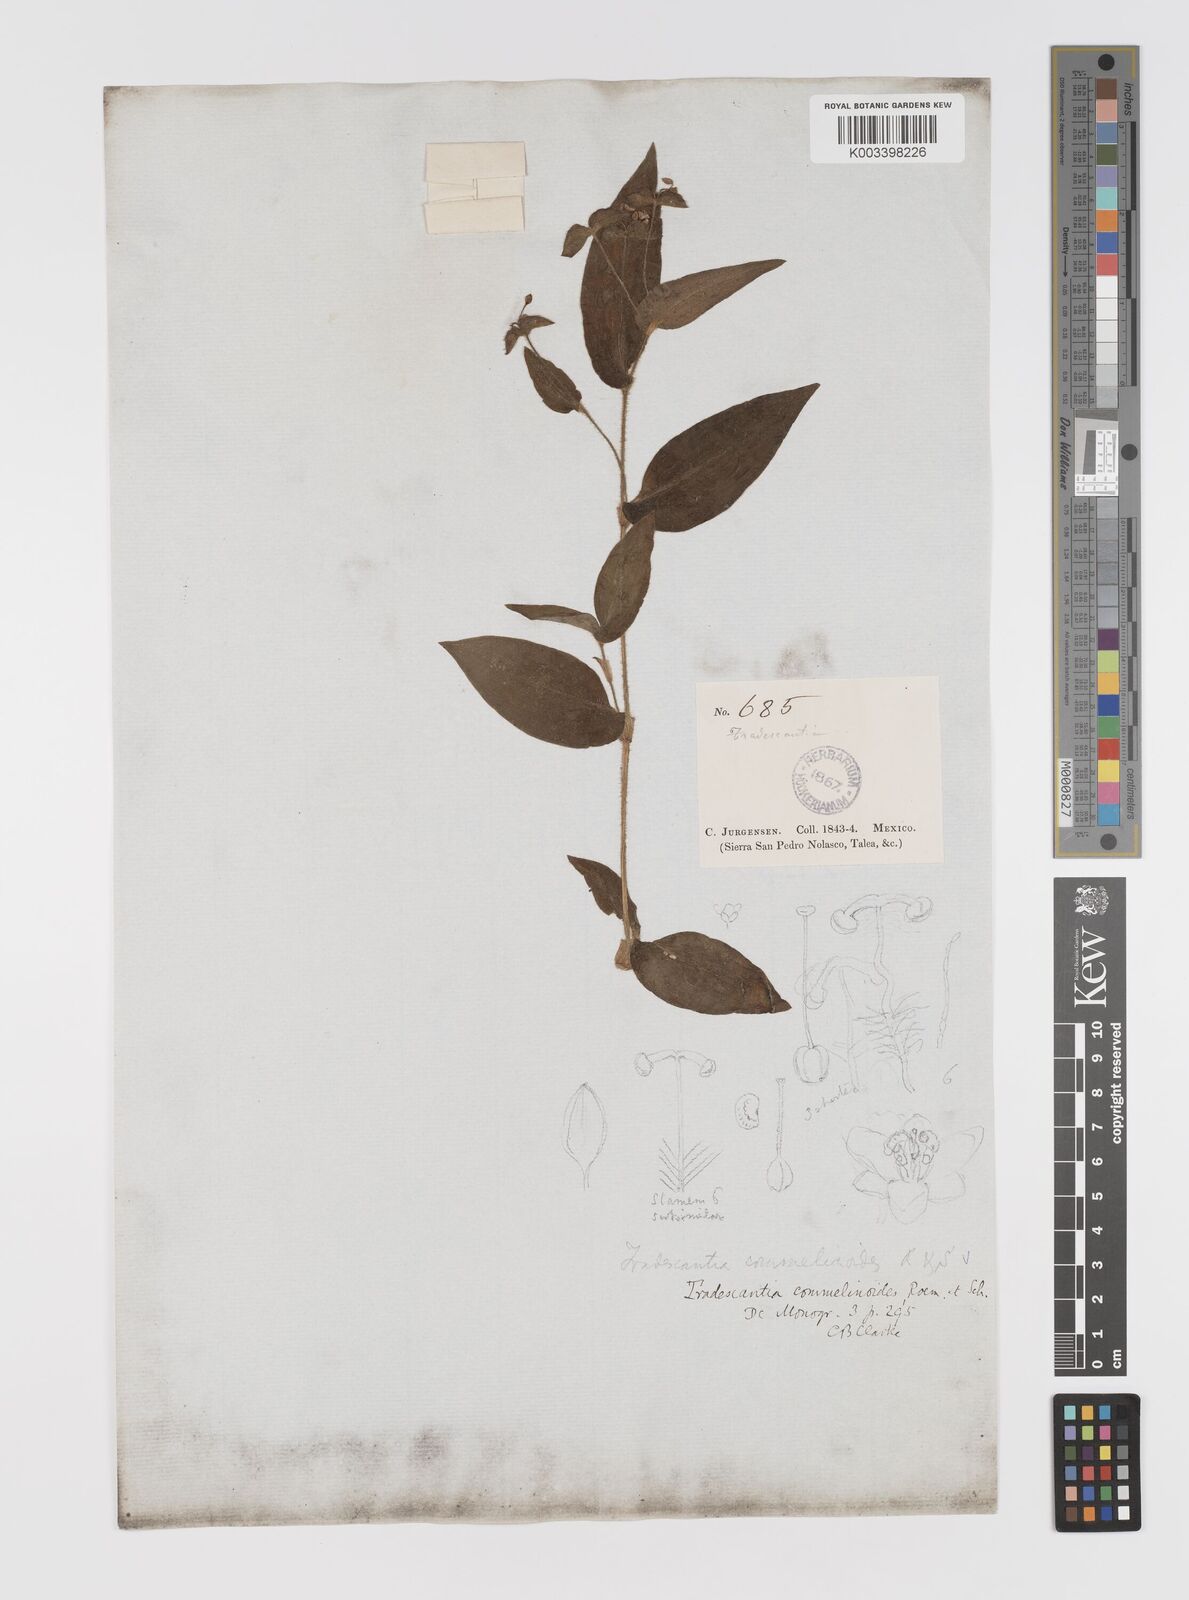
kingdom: Plantae
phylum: Tracheophyta
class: Liliopsida
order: Commelinales
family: Commelinaceae
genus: Tradescantia
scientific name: Tradescantia commelinoides
